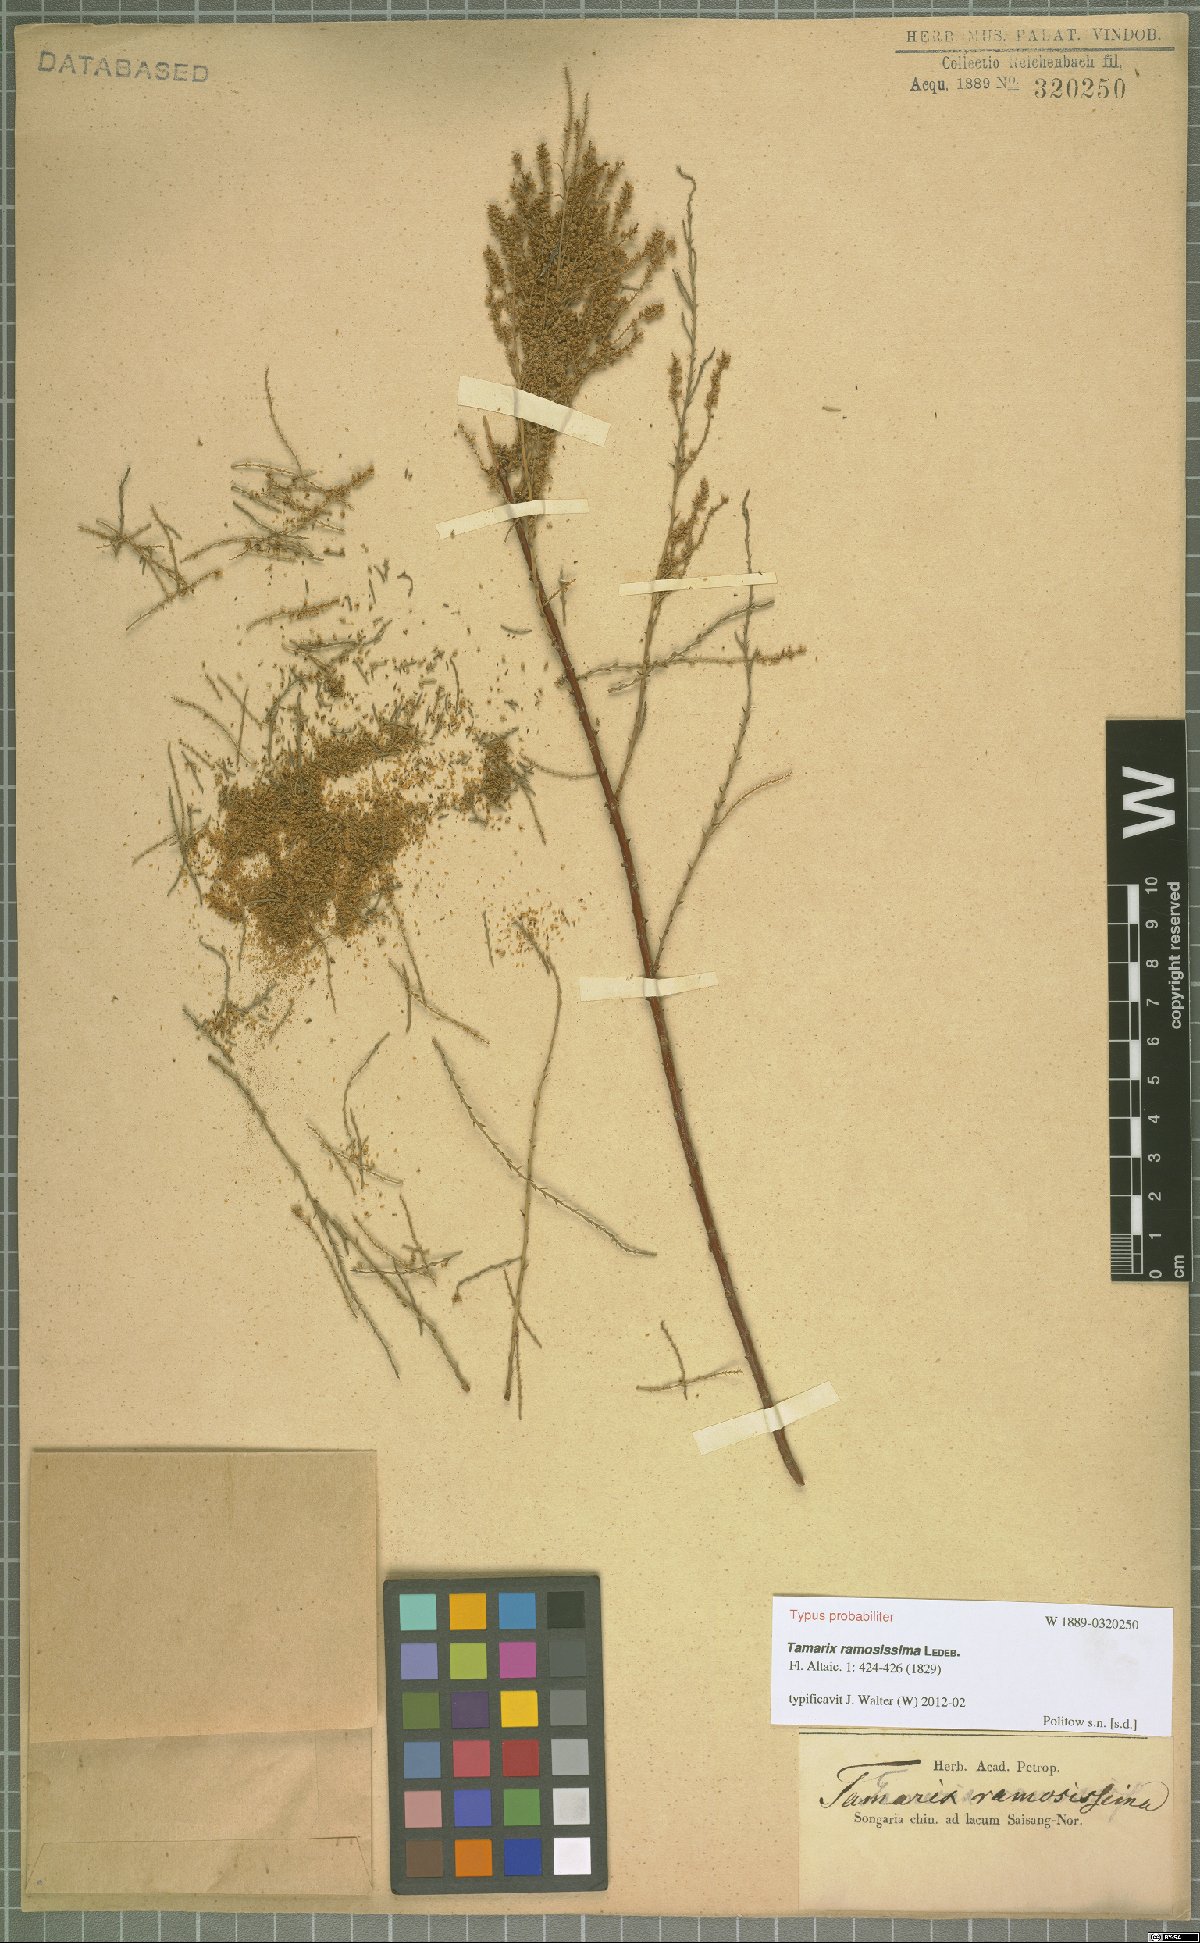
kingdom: Plantae
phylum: Tracheophyta
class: Magnoliopsida
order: Caryophyllales
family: Tamaricaceae
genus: Tamarix
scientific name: Tamarix ramosissima
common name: Pink tamarisk
